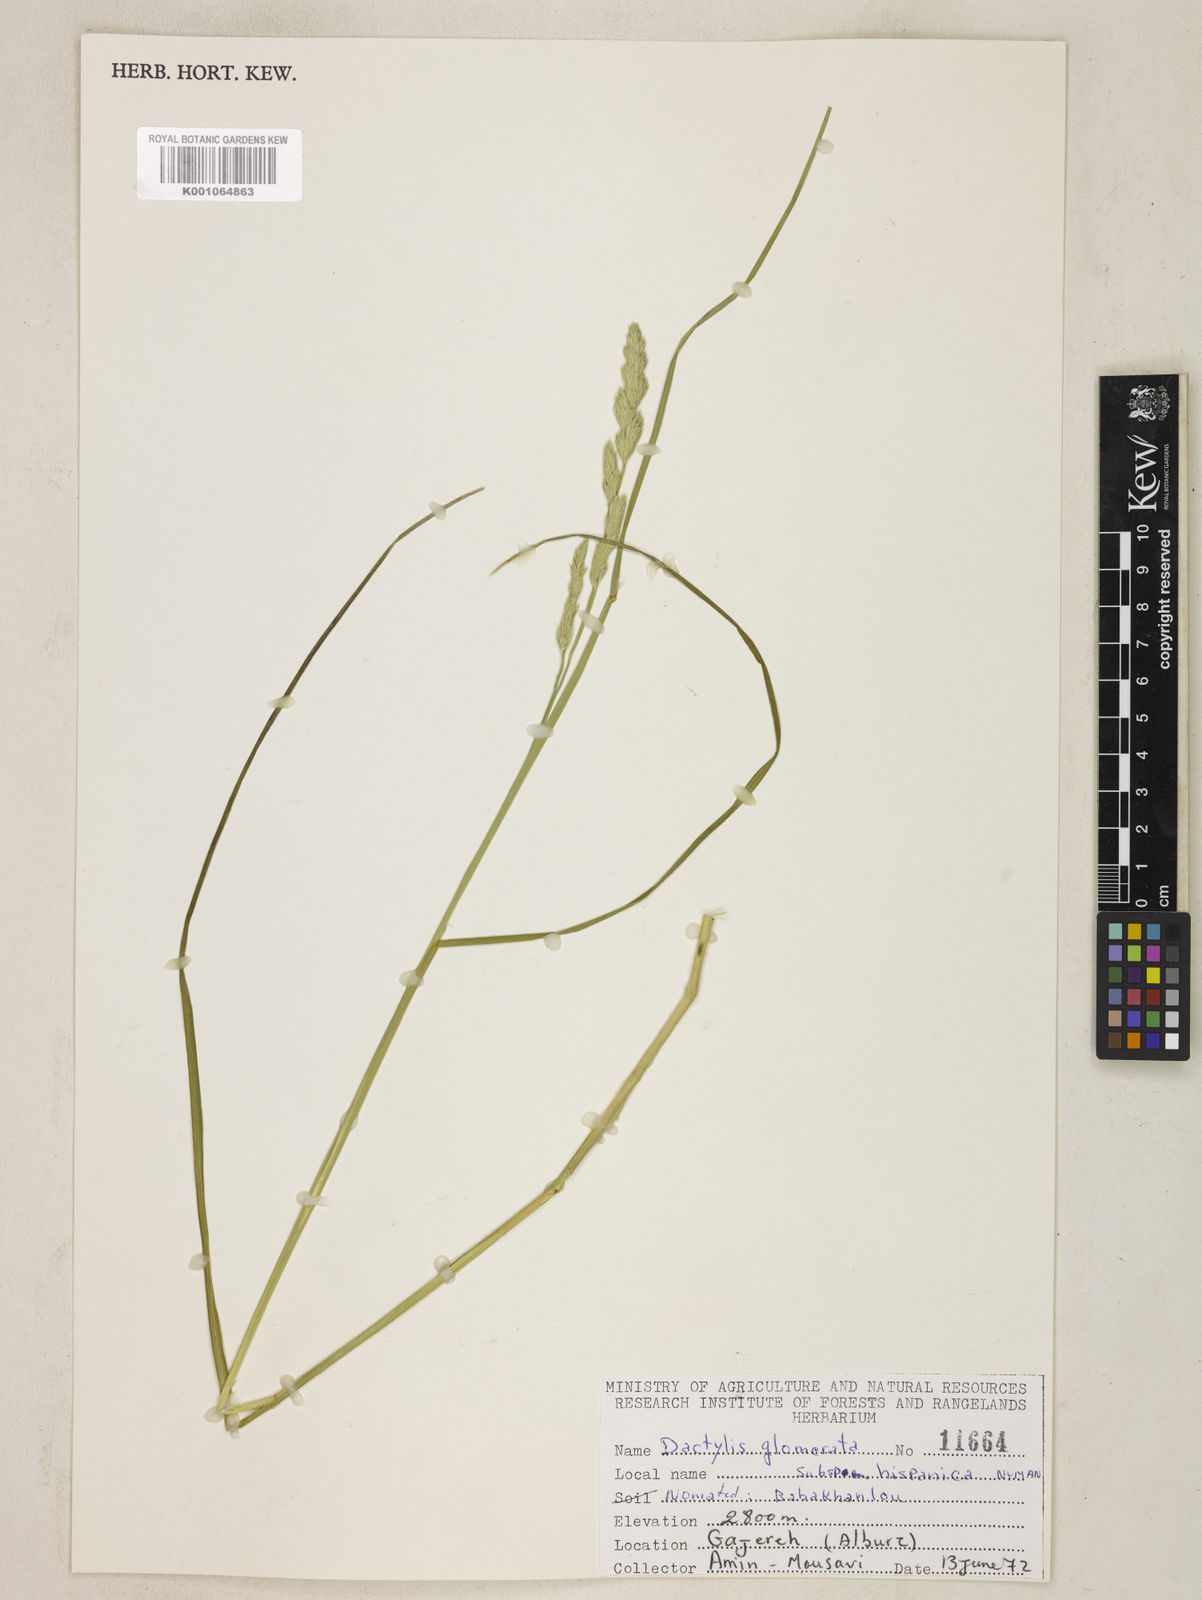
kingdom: Plantae
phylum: Tracheophyta
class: Liliopsida
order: Poales
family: Poaceae
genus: Dactylis
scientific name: Dactylis glomerata
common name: Orchardgrass
